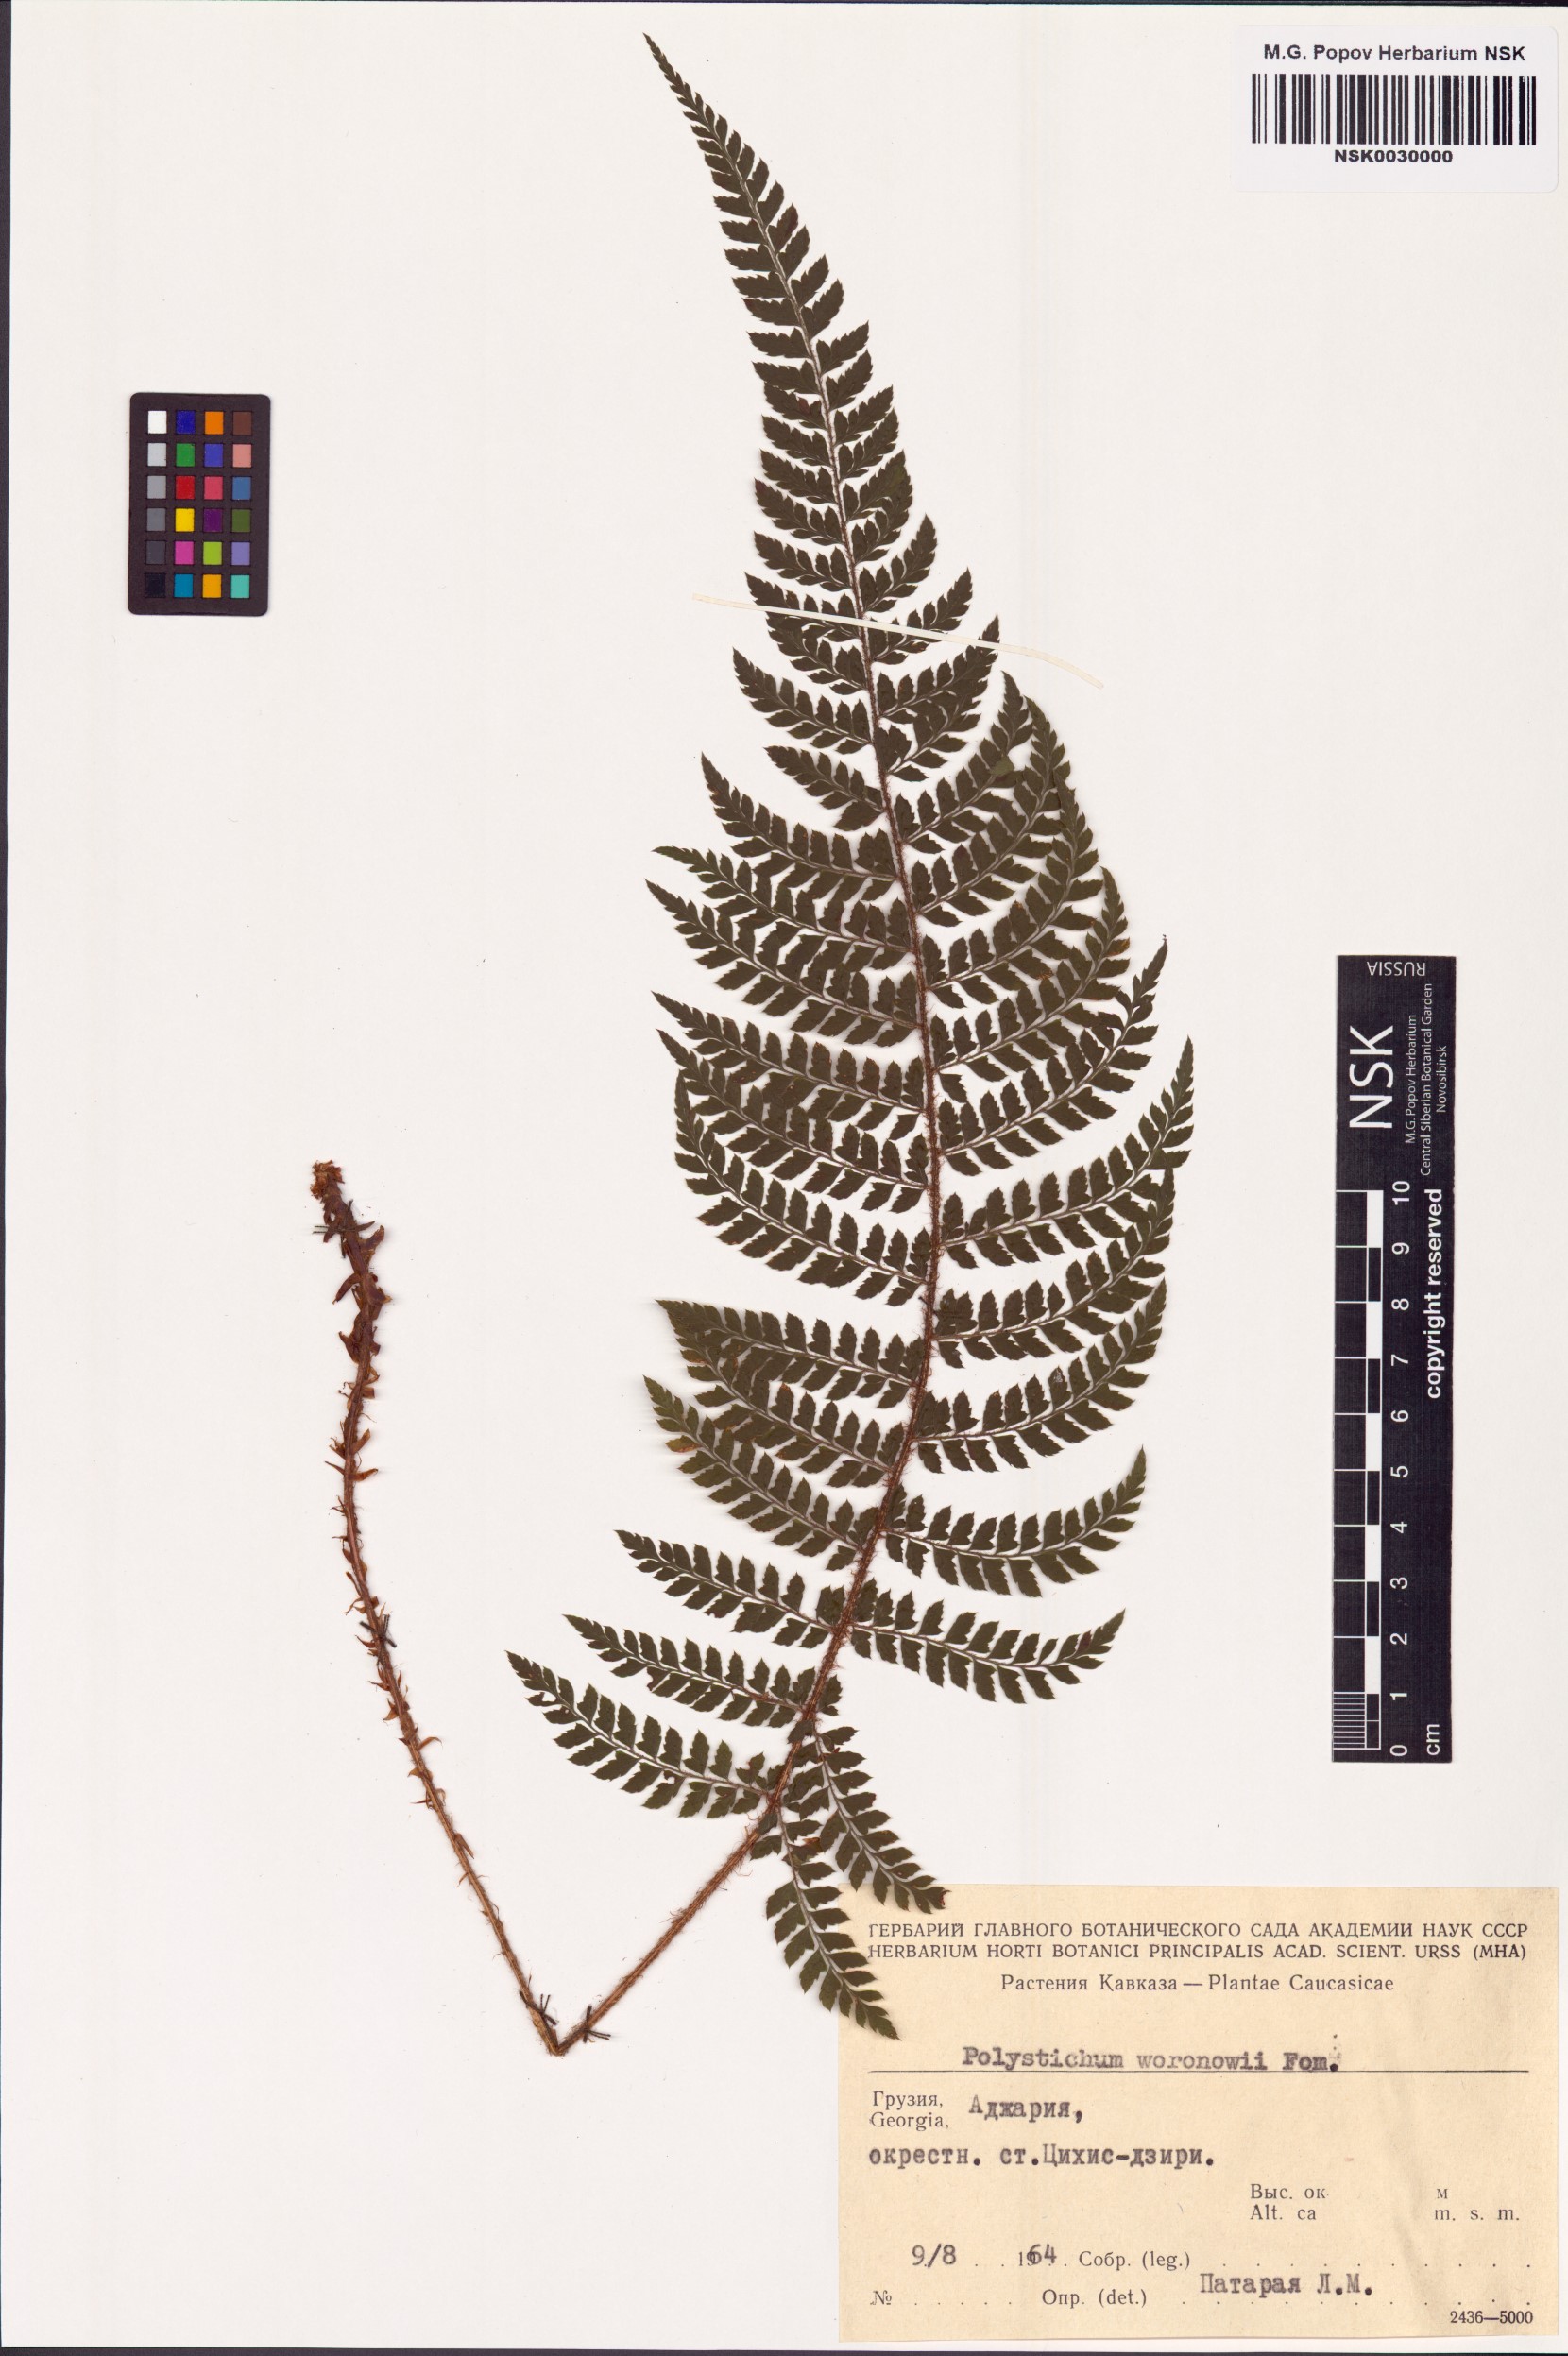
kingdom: Plantae
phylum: Tracheophyta
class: Polypodiopsida
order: Polypodiales
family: Dryopteridaceae
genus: Polystichum
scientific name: Polystichum woronowii
